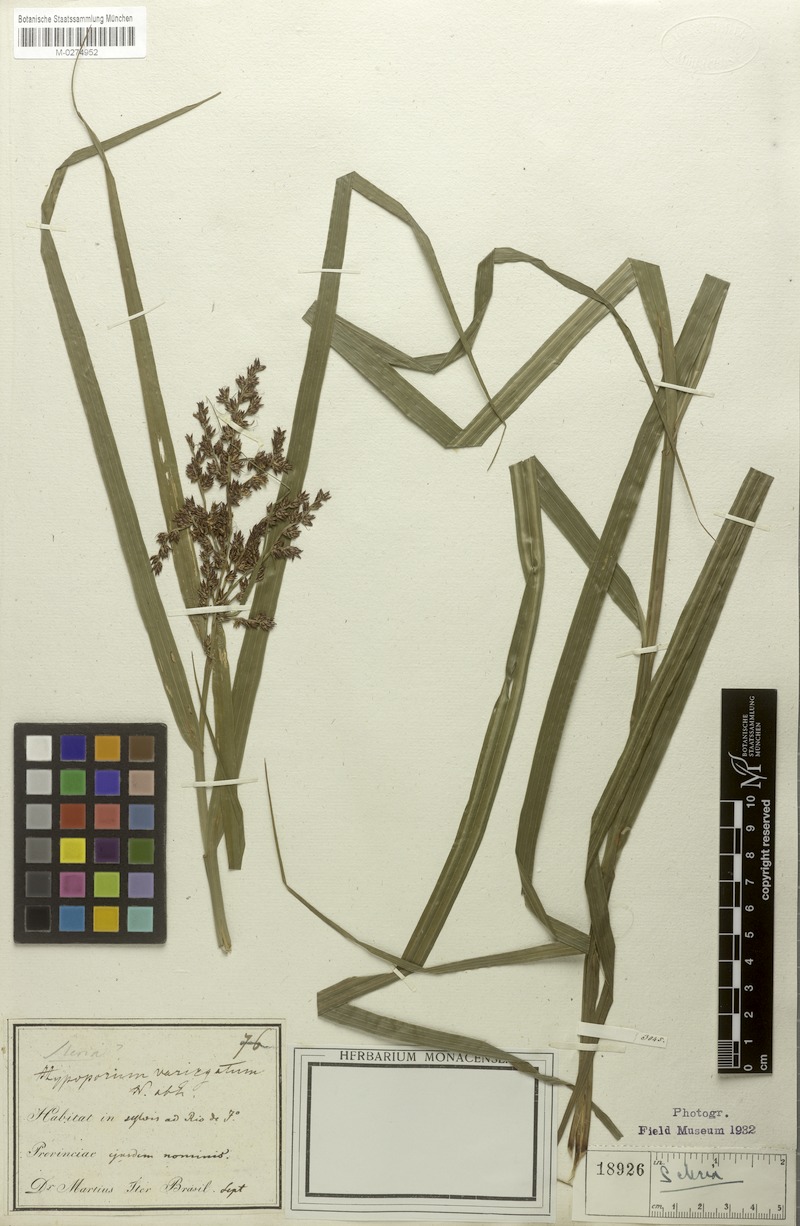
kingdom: Plantae
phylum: Tracheophyta
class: Liliopsida
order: Poales
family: Cyperaceae
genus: Scleria
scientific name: Scleria variegata
